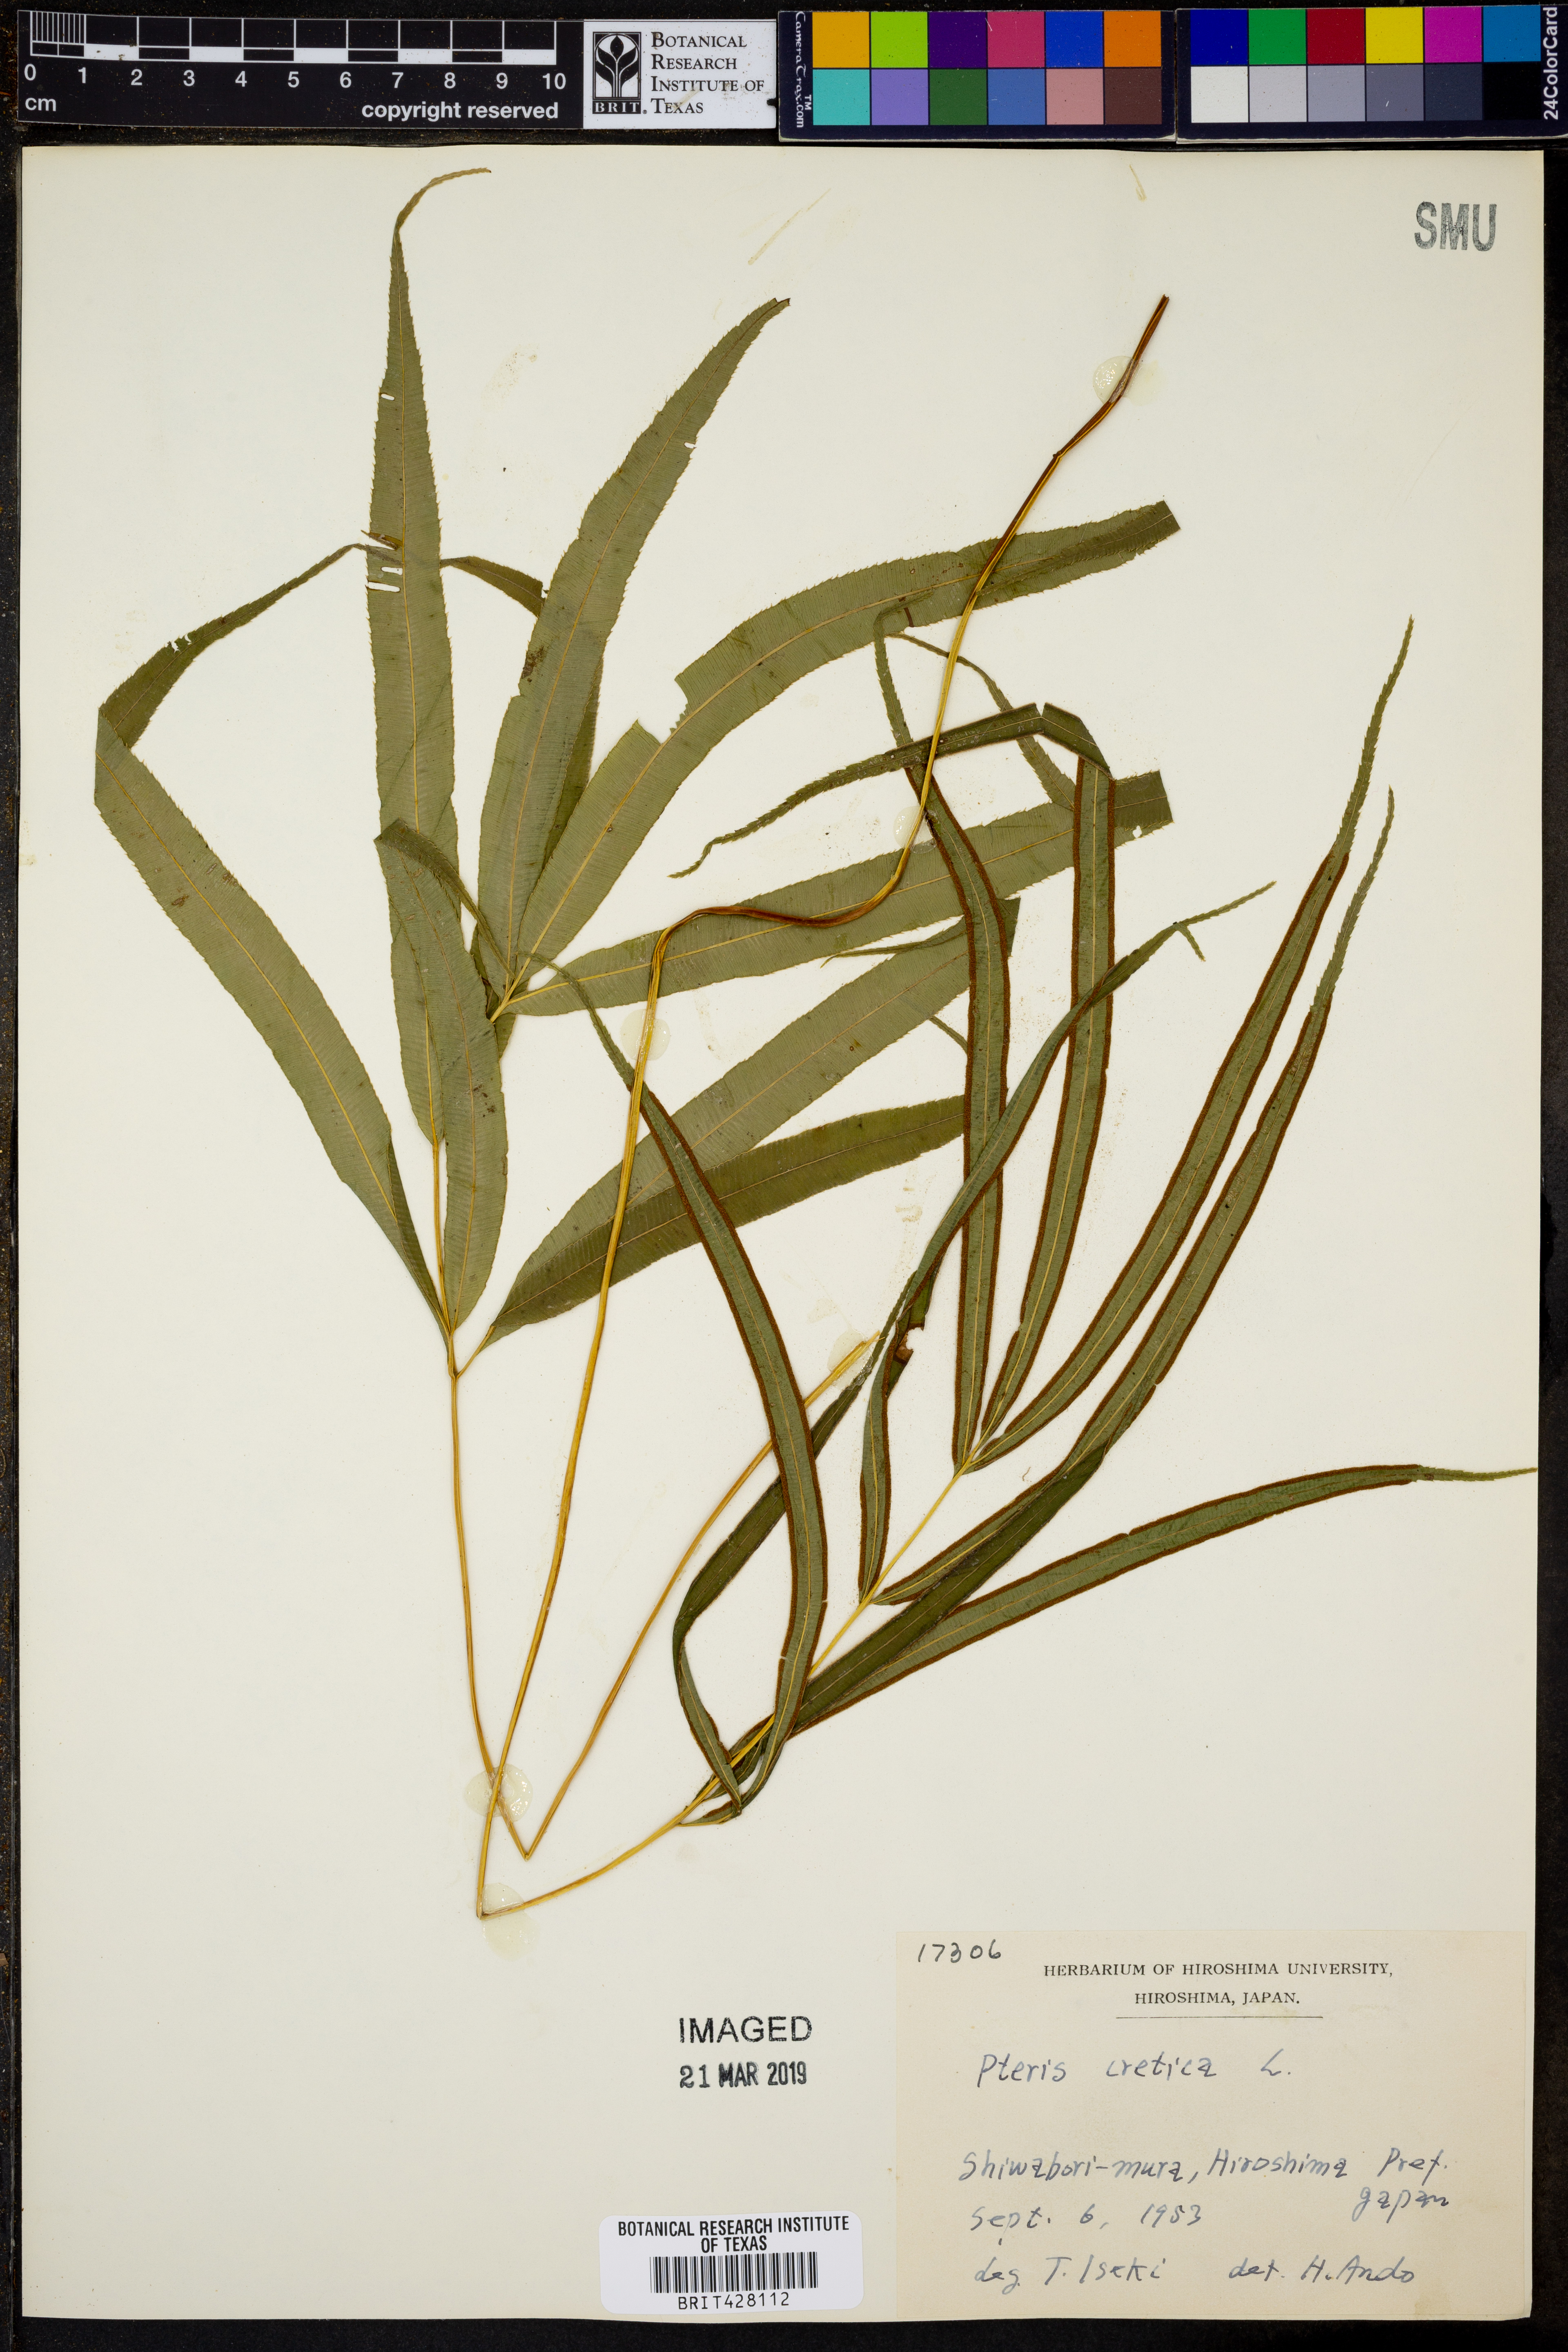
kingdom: Plantae
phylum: Tracheophyta
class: Polypodiopsida
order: Polypodiales
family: Pteridaceae
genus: Pteris
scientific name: Pteris cretica
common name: Ribbon fern
